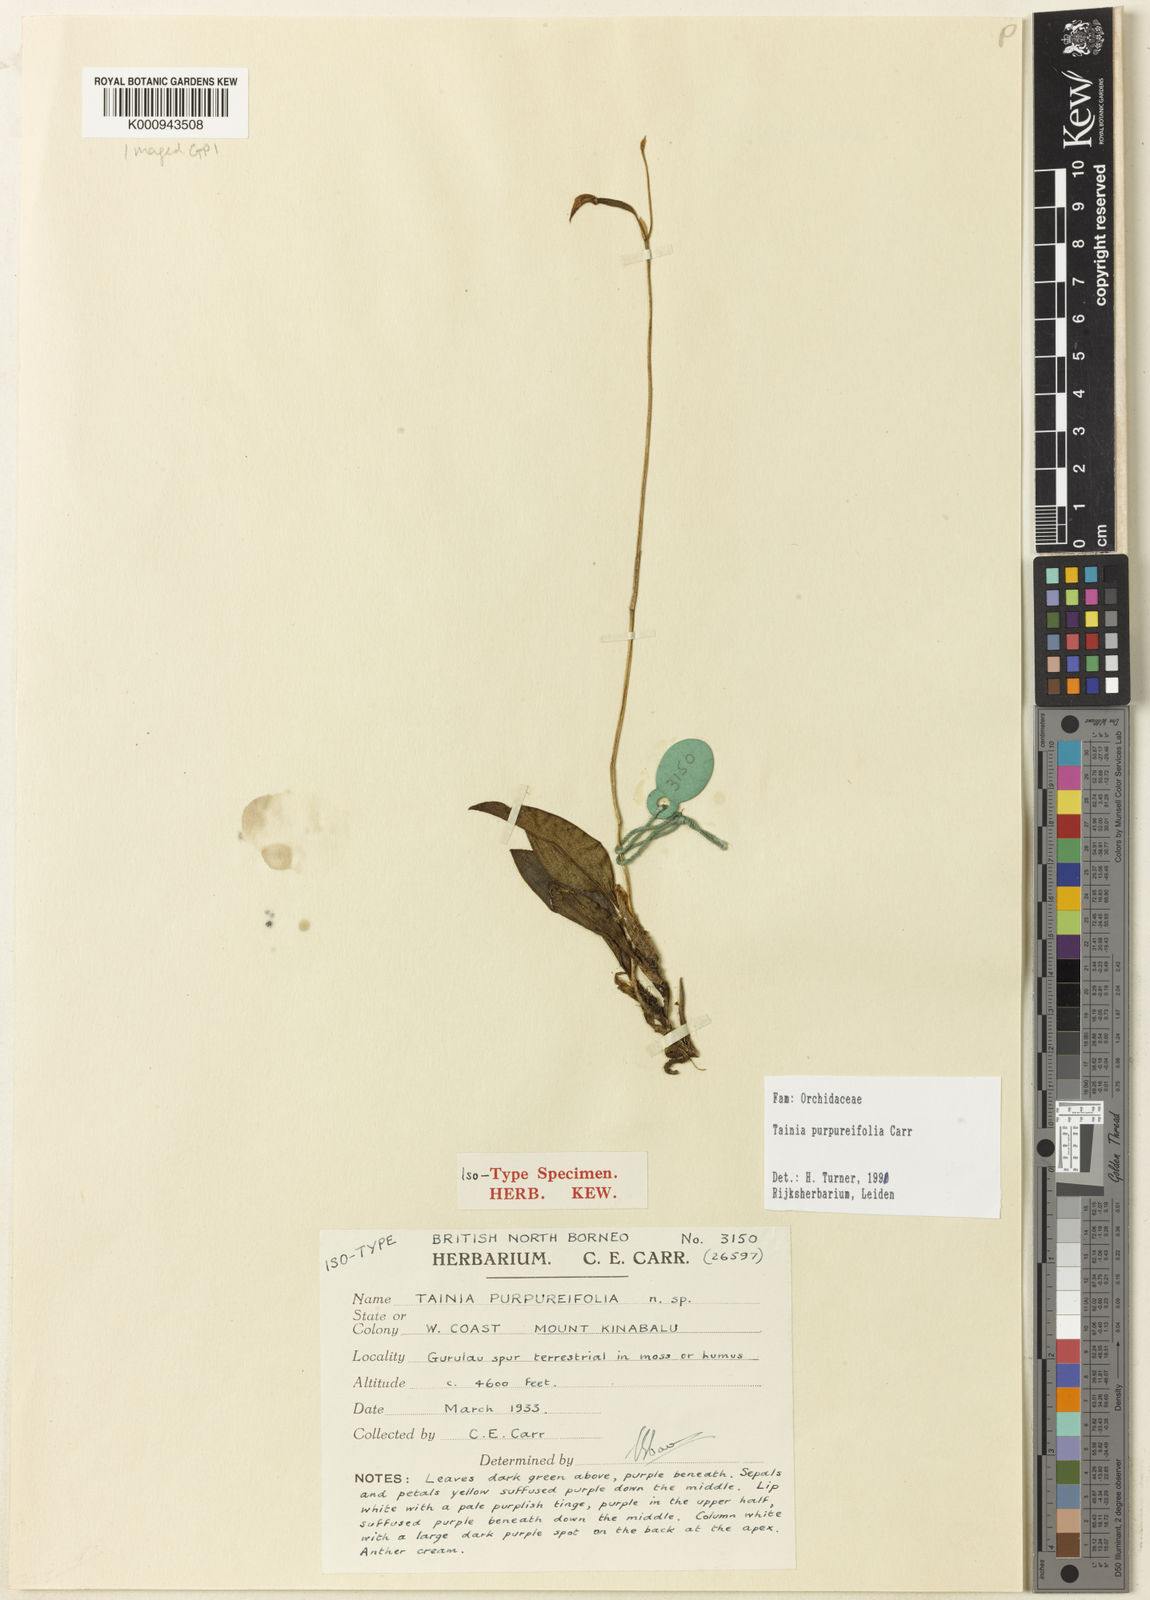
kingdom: Plantae
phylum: Tracheophyta
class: Liliopsida
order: Asparagales
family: Orchidaceae
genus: Tainia
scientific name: Tainia purpureifolia
